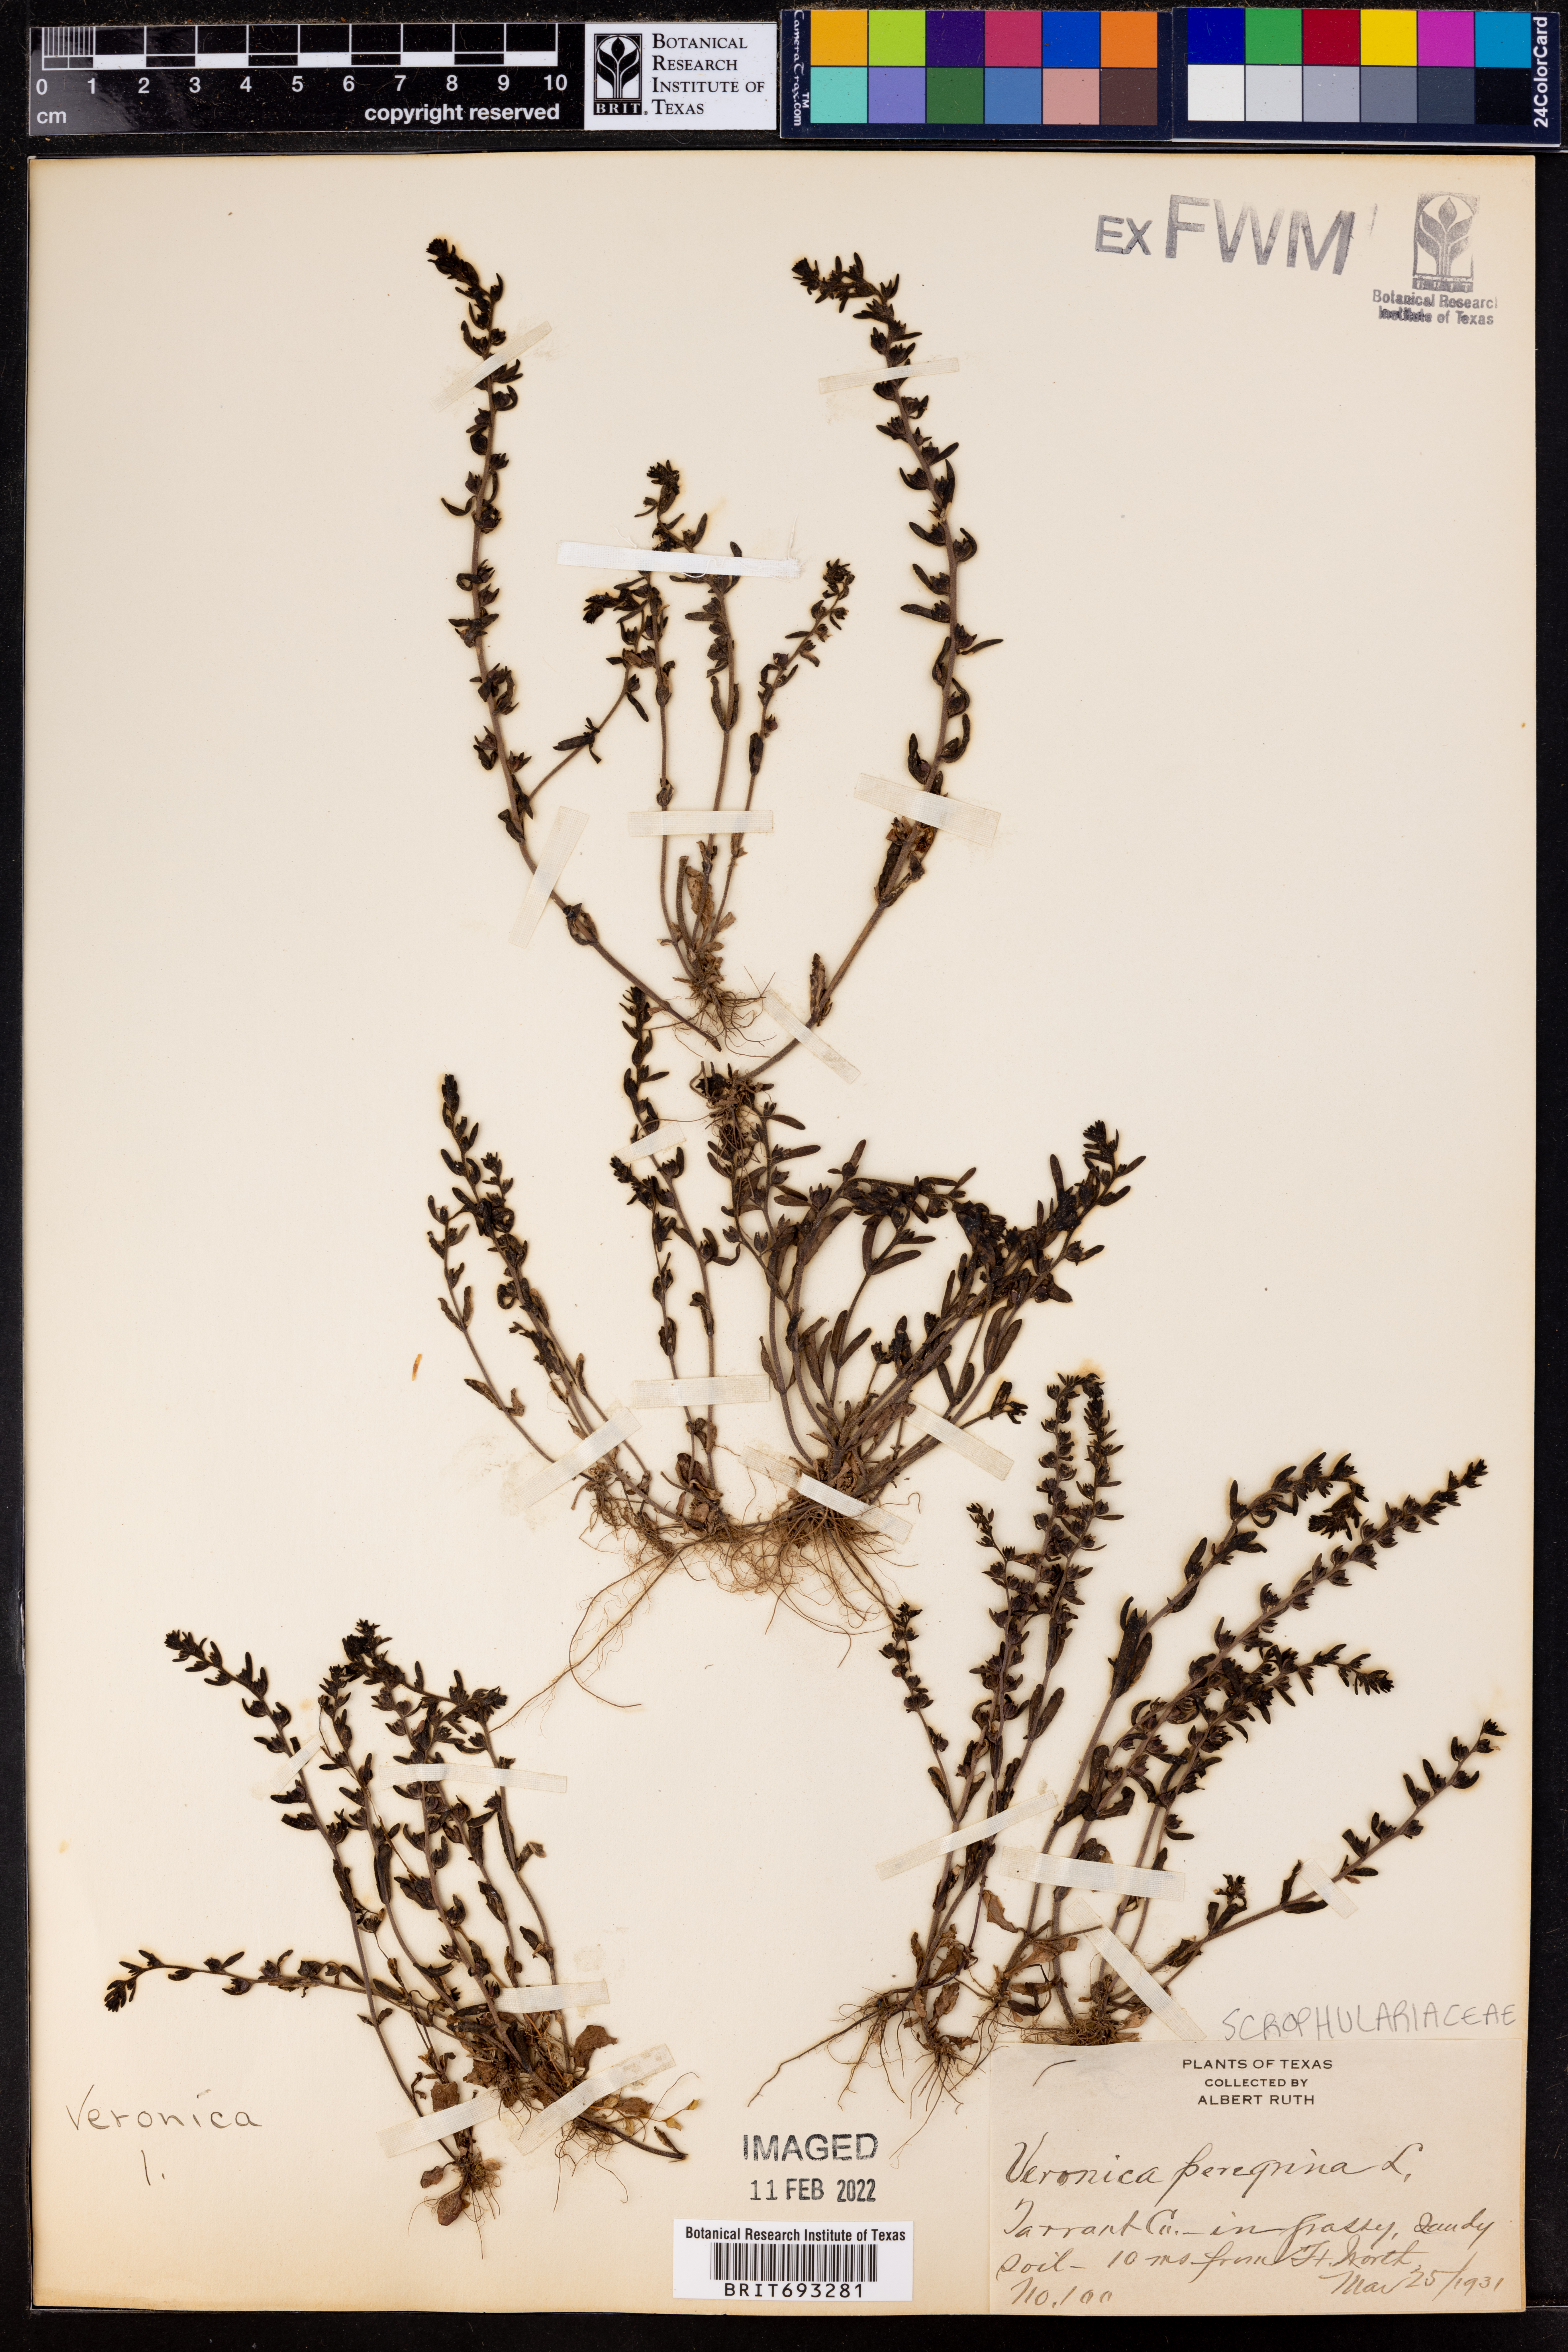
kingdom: Plantae
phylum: Tracheophyta
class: Magnoliopsida
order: Lamiales
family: Plantaginaceae
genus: Veronica
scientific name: Veronica peregrina
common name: Neckweed
